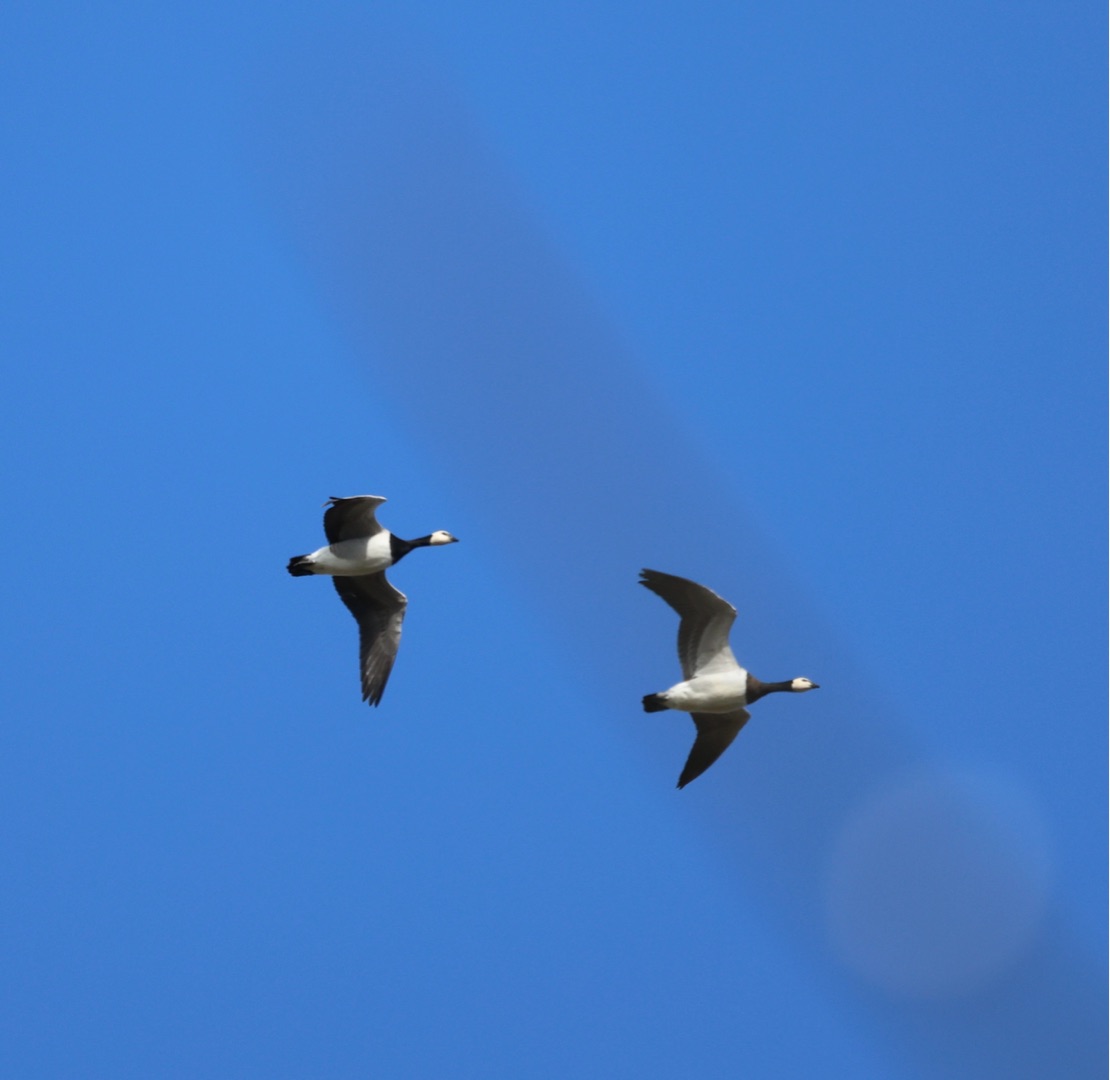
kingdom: Animalia
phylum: Chordata
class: Aves
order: Anseriformes
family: Anatidae
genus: Branta
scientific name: Branta leucopsis
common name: Bramgås
